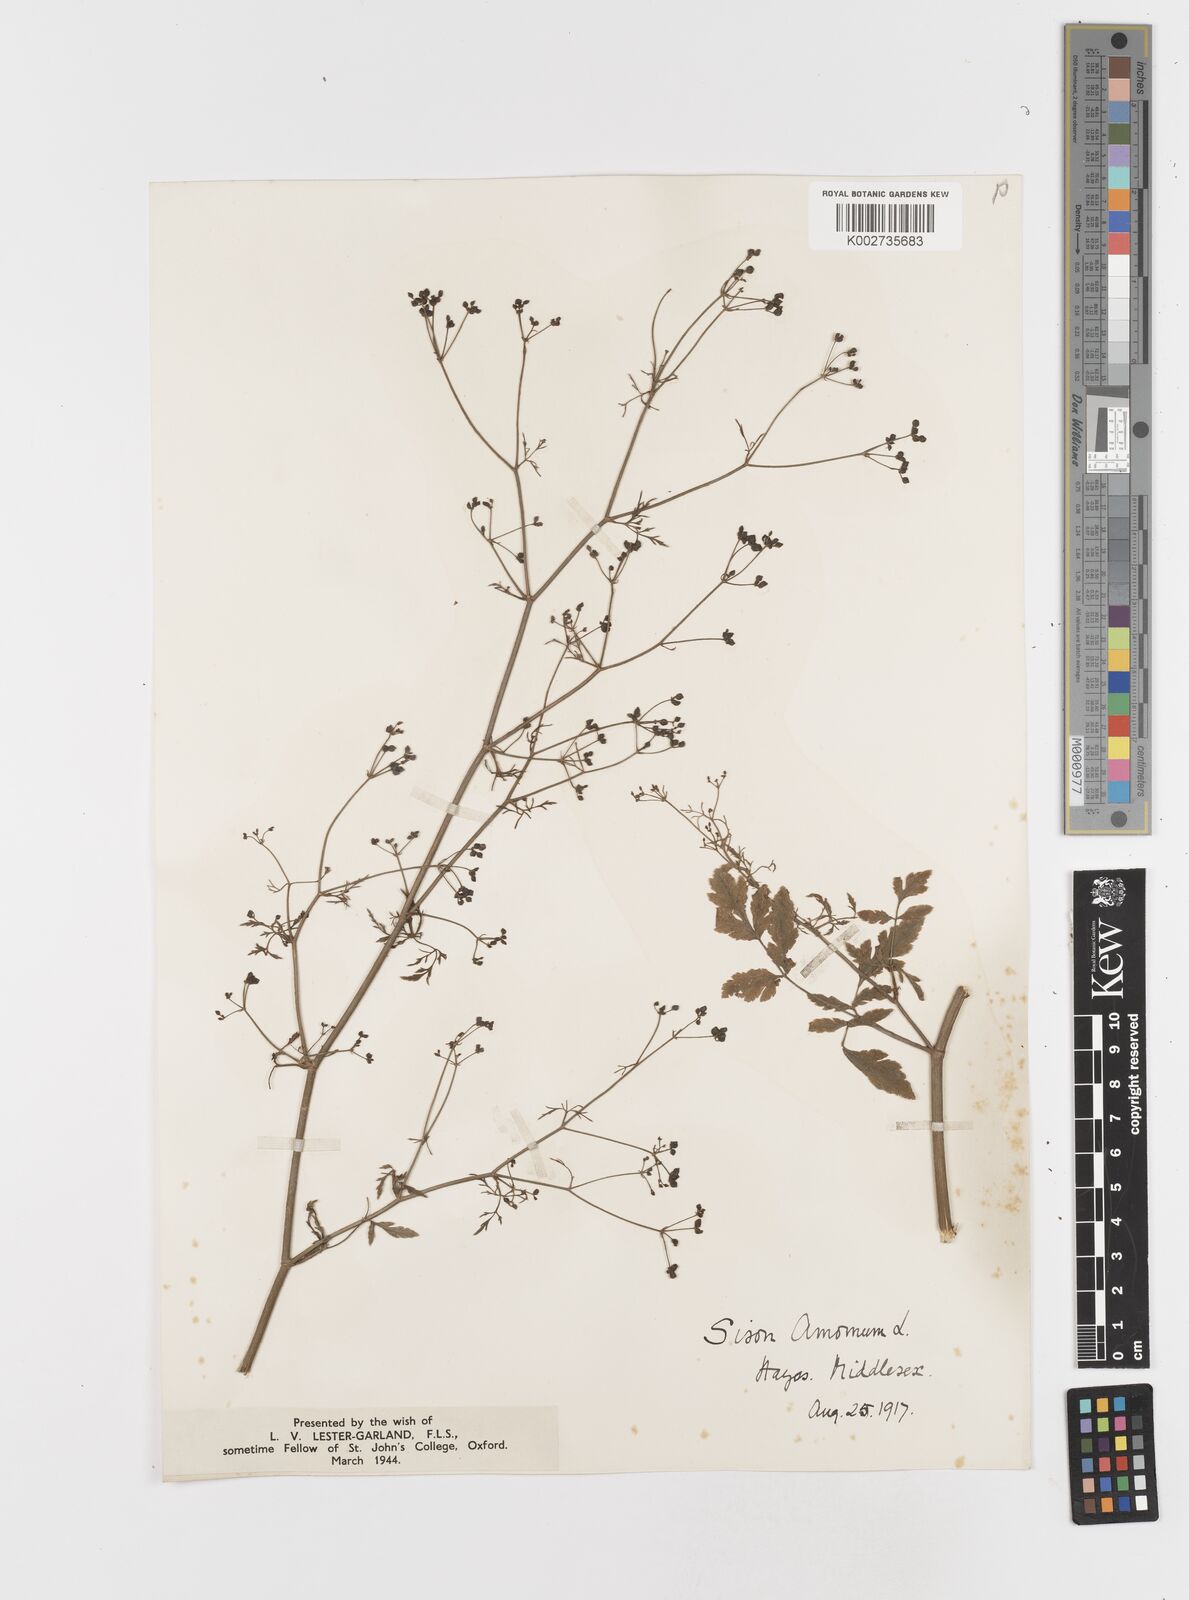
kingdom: Plantae
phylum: Tracheophyta
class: Magnoliopsida
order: Apiales
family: Apiaceae
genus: Sison
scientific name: Sison amomum
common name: Stone-parsley
